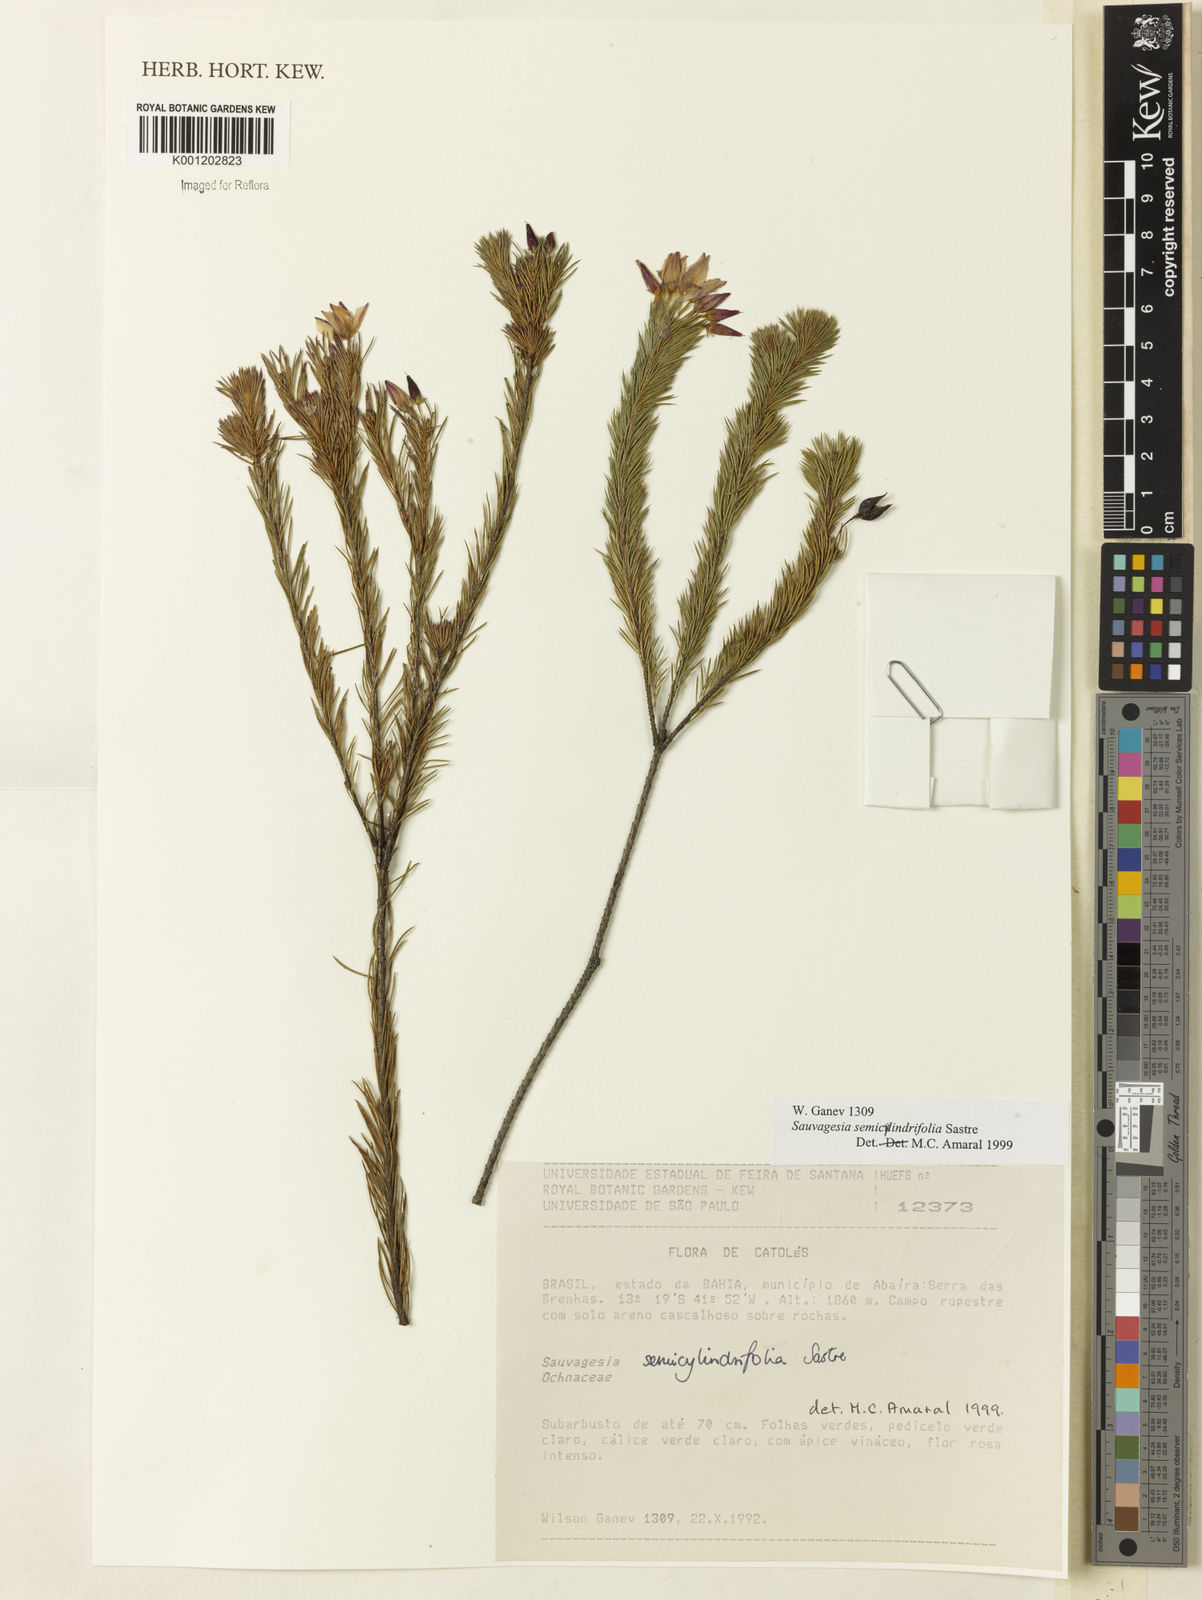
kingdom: Plantae
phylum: Tracheophyta
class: Magnoliopsida
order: Malpighiales
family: Ochnaceae
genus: Sauvagesia
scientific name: Sauvagesia semicylindrifolia
